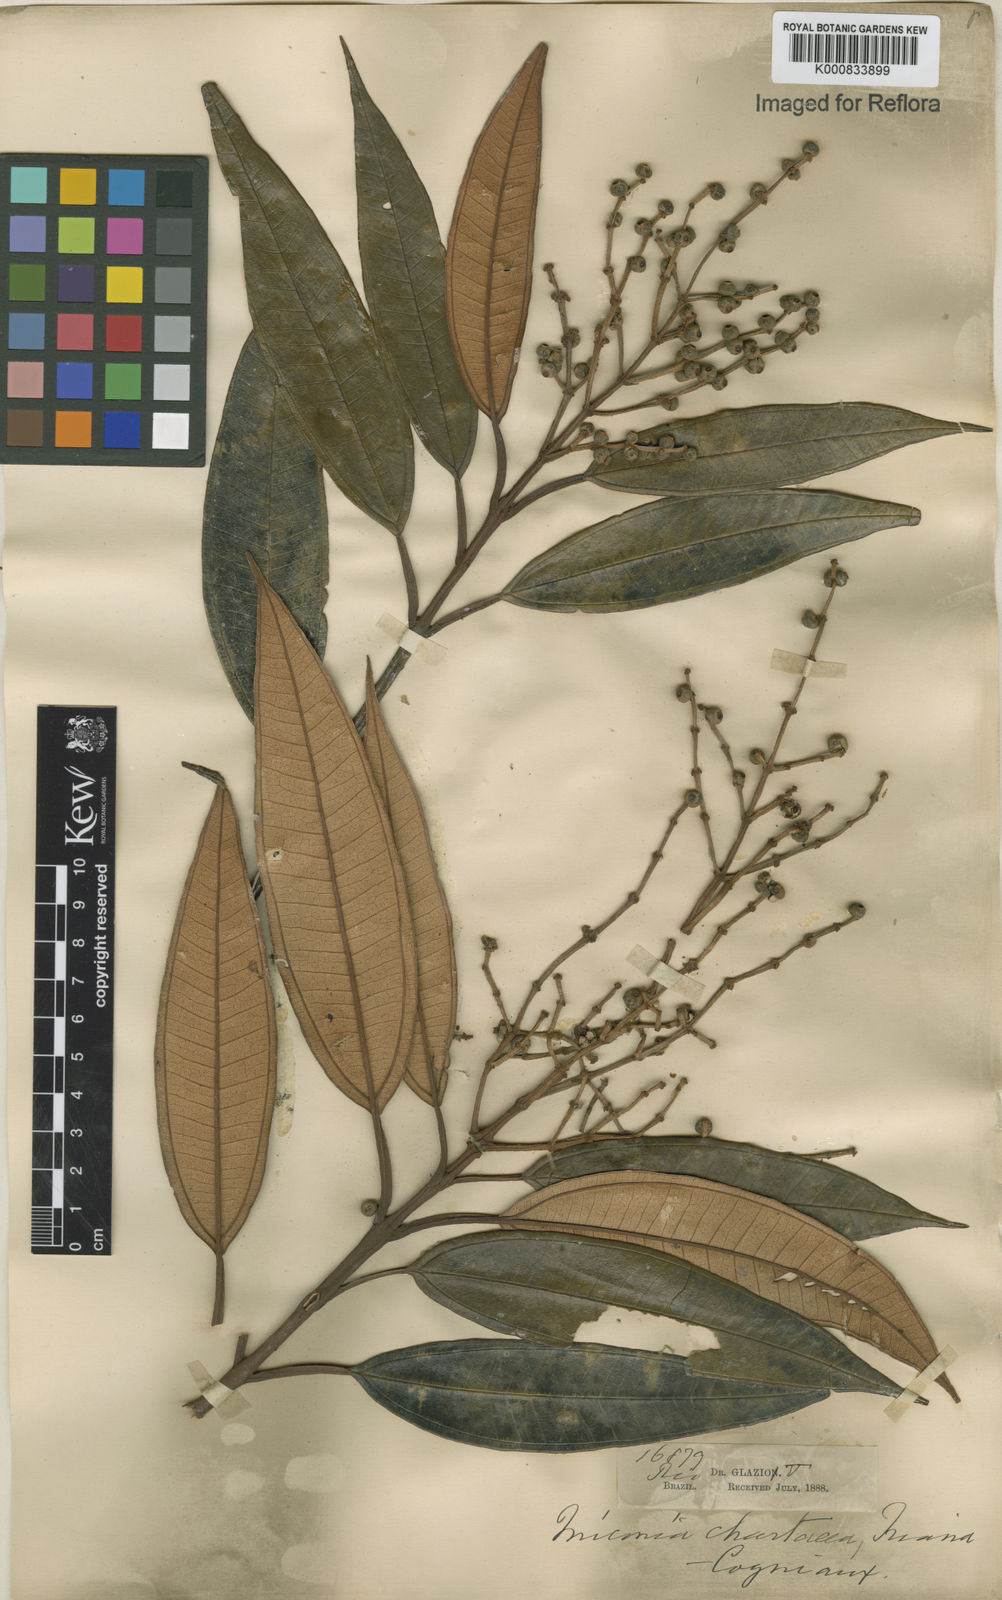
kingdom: Plantae
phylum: Tracheophyta
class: Magnoliopsida
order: Myrtales
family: Melastomataceae
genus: Miconia
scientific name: Miconia chartacea
